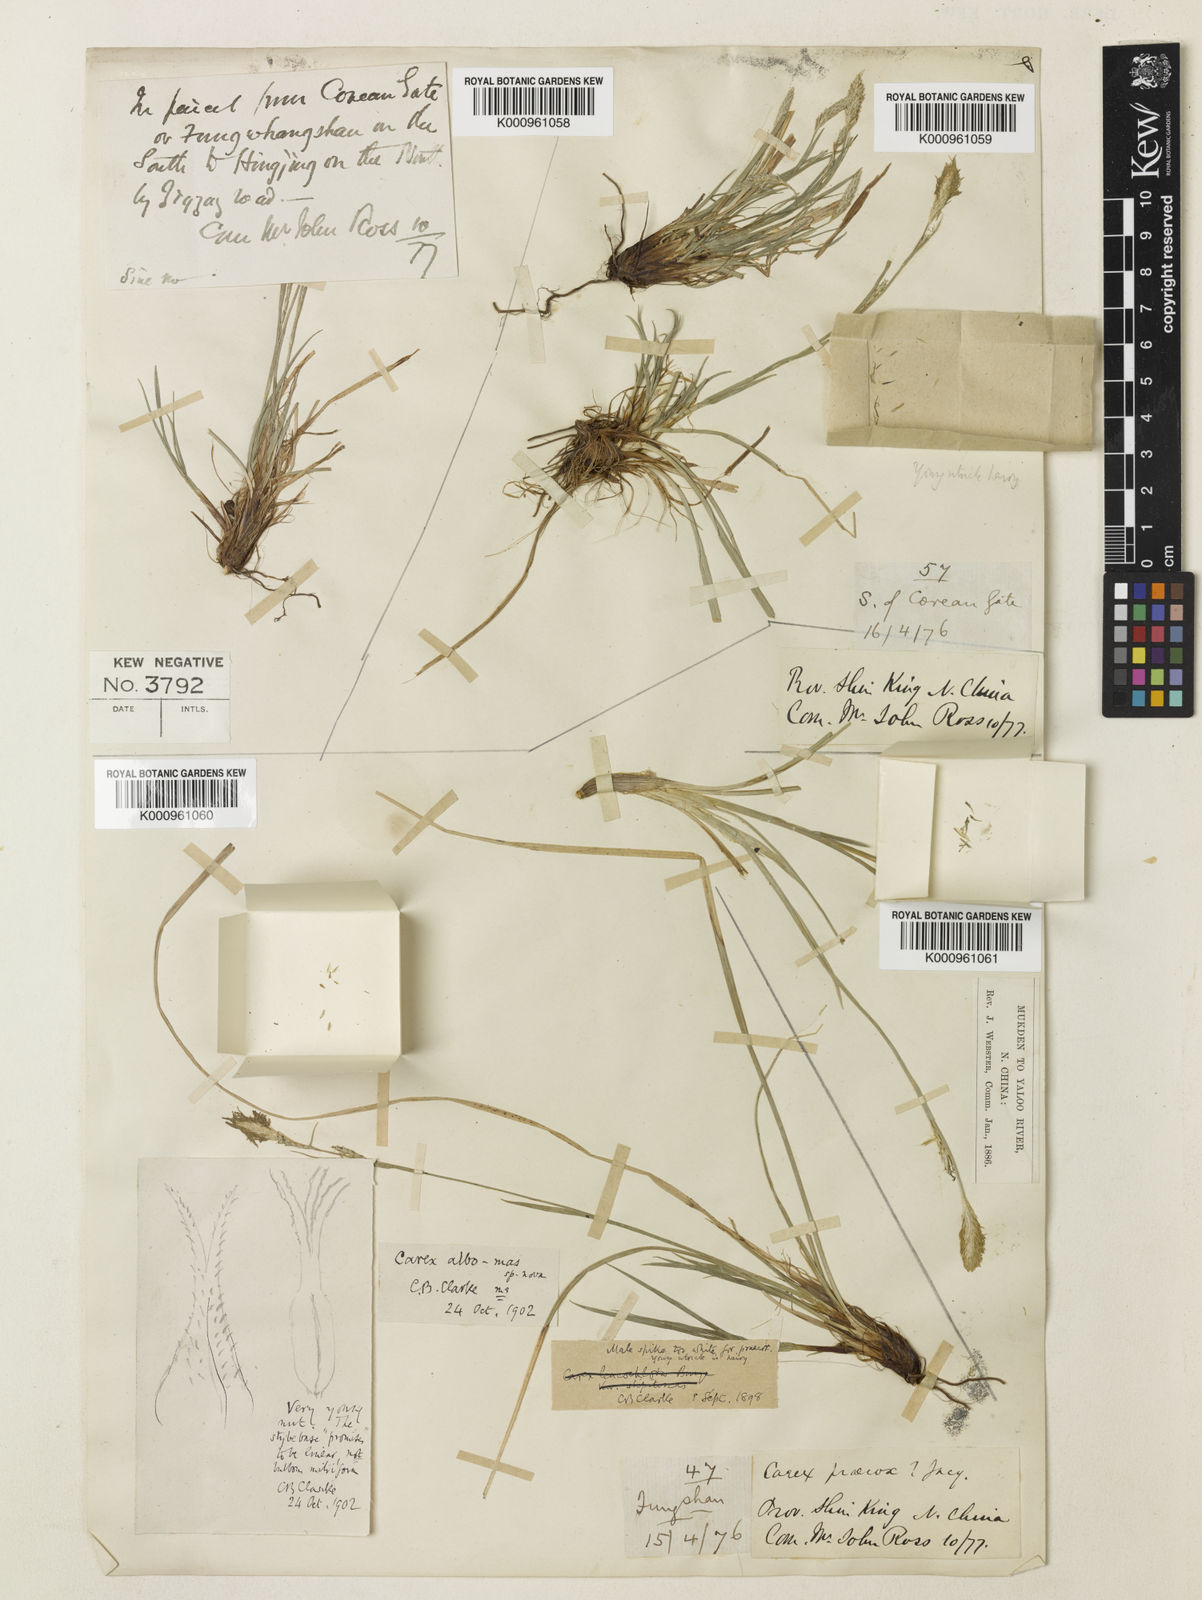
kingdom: Plantae
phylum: Tracheophyta
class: Liliopsida
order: Poales
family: Cyperaceae
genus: Carex
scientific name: Carex pisiformis
